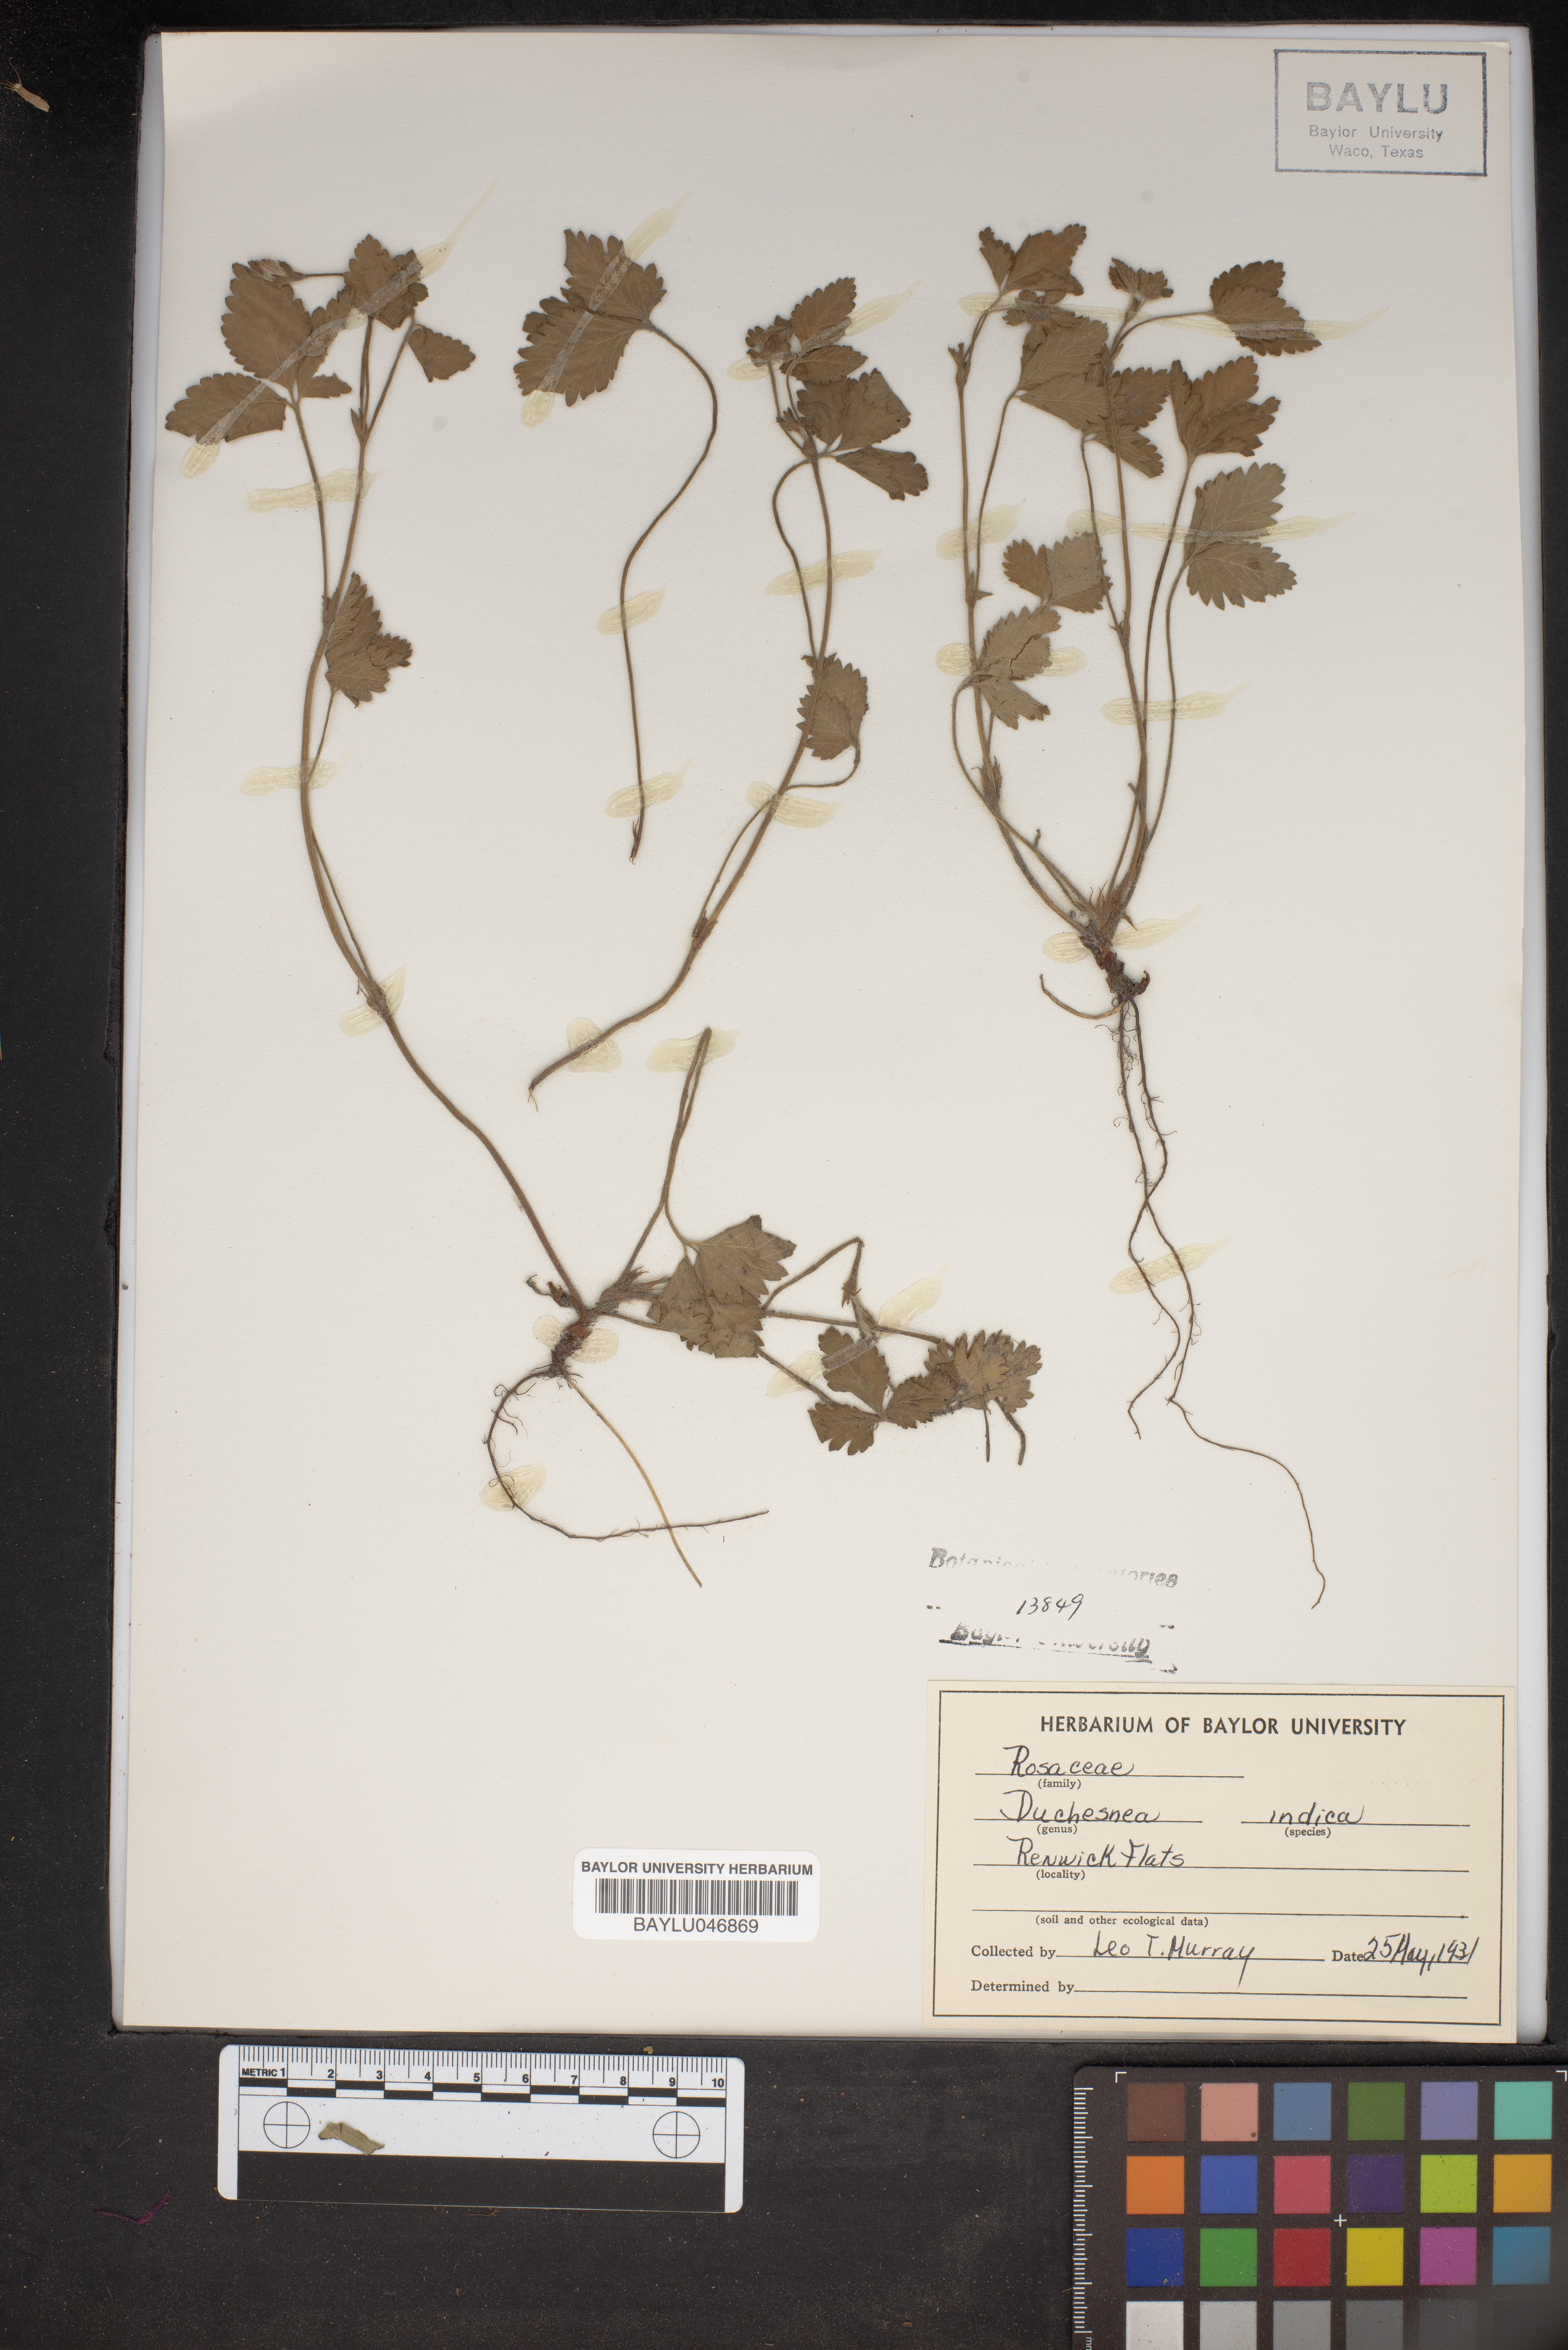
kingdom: Plantae
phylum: Tracheophyta
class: Magnoliopsida
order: Rosales
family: Rosaceae
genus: Potentilla
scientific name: Potentilla indica
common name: Yellow-flowered strawberry
